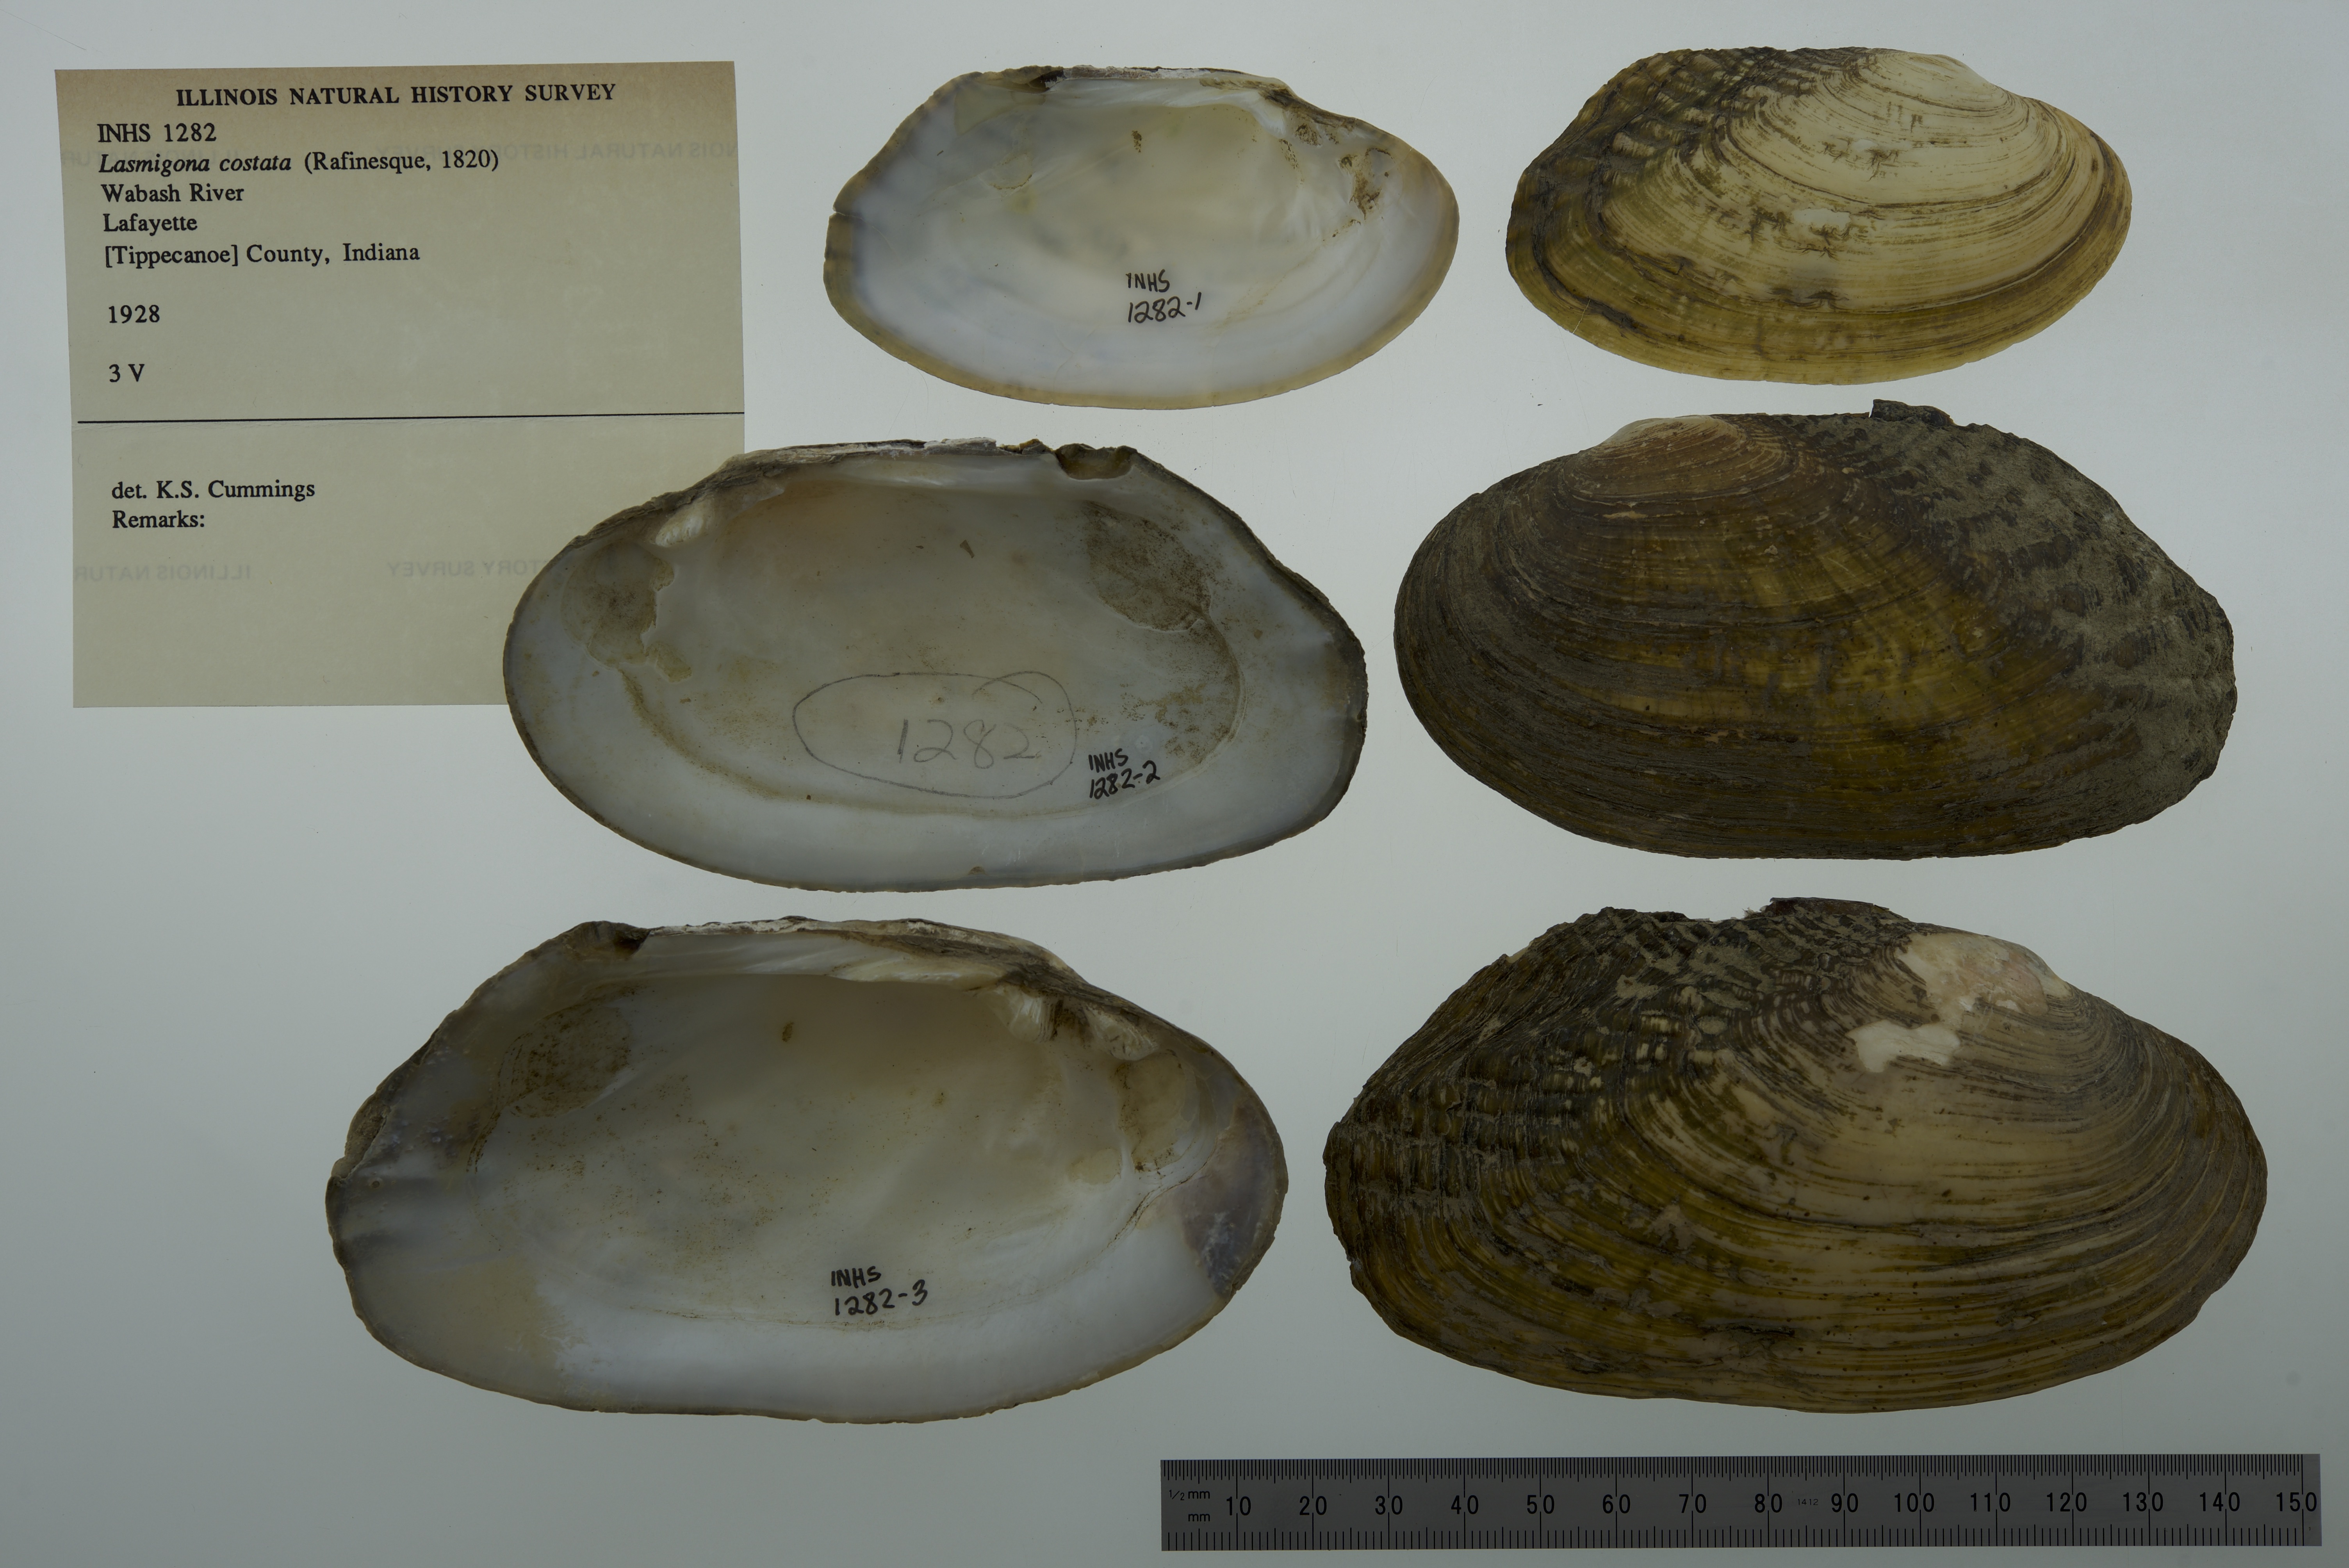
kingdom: Animalia
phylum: Mollusca
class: Bivalvia
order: Unionida
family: Unionidae
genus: Lasmigona
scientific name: Lasmigona costata
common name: Flutedshell
